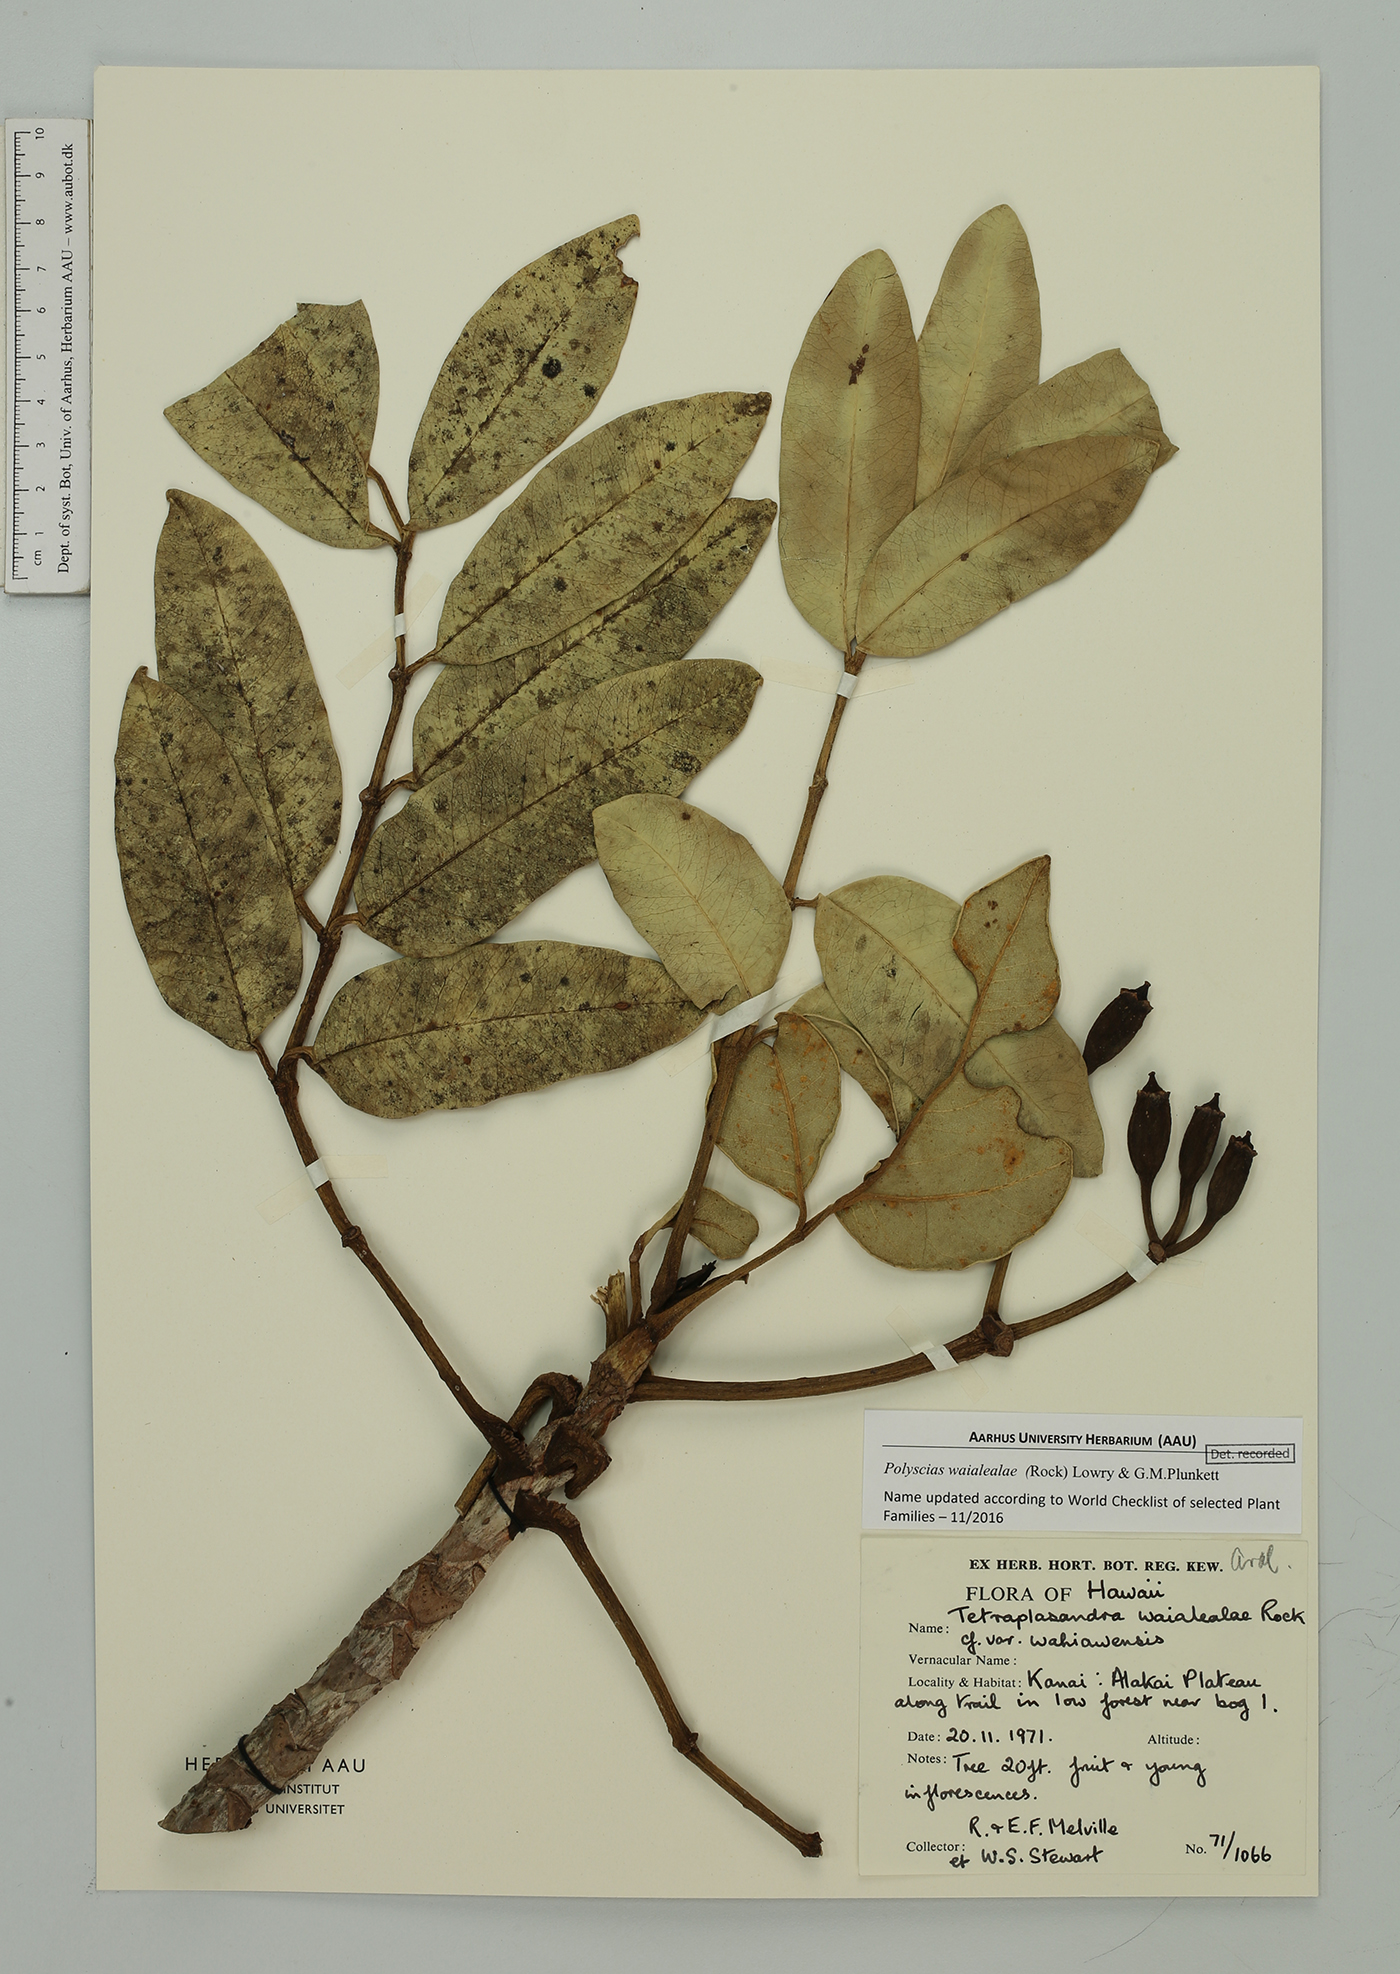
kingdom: Plantae
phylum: Tracheophyta
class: Magnoliopsida
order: Apiales
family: Araliaceae
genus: Polyscias
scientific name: Polyscias waialealae
